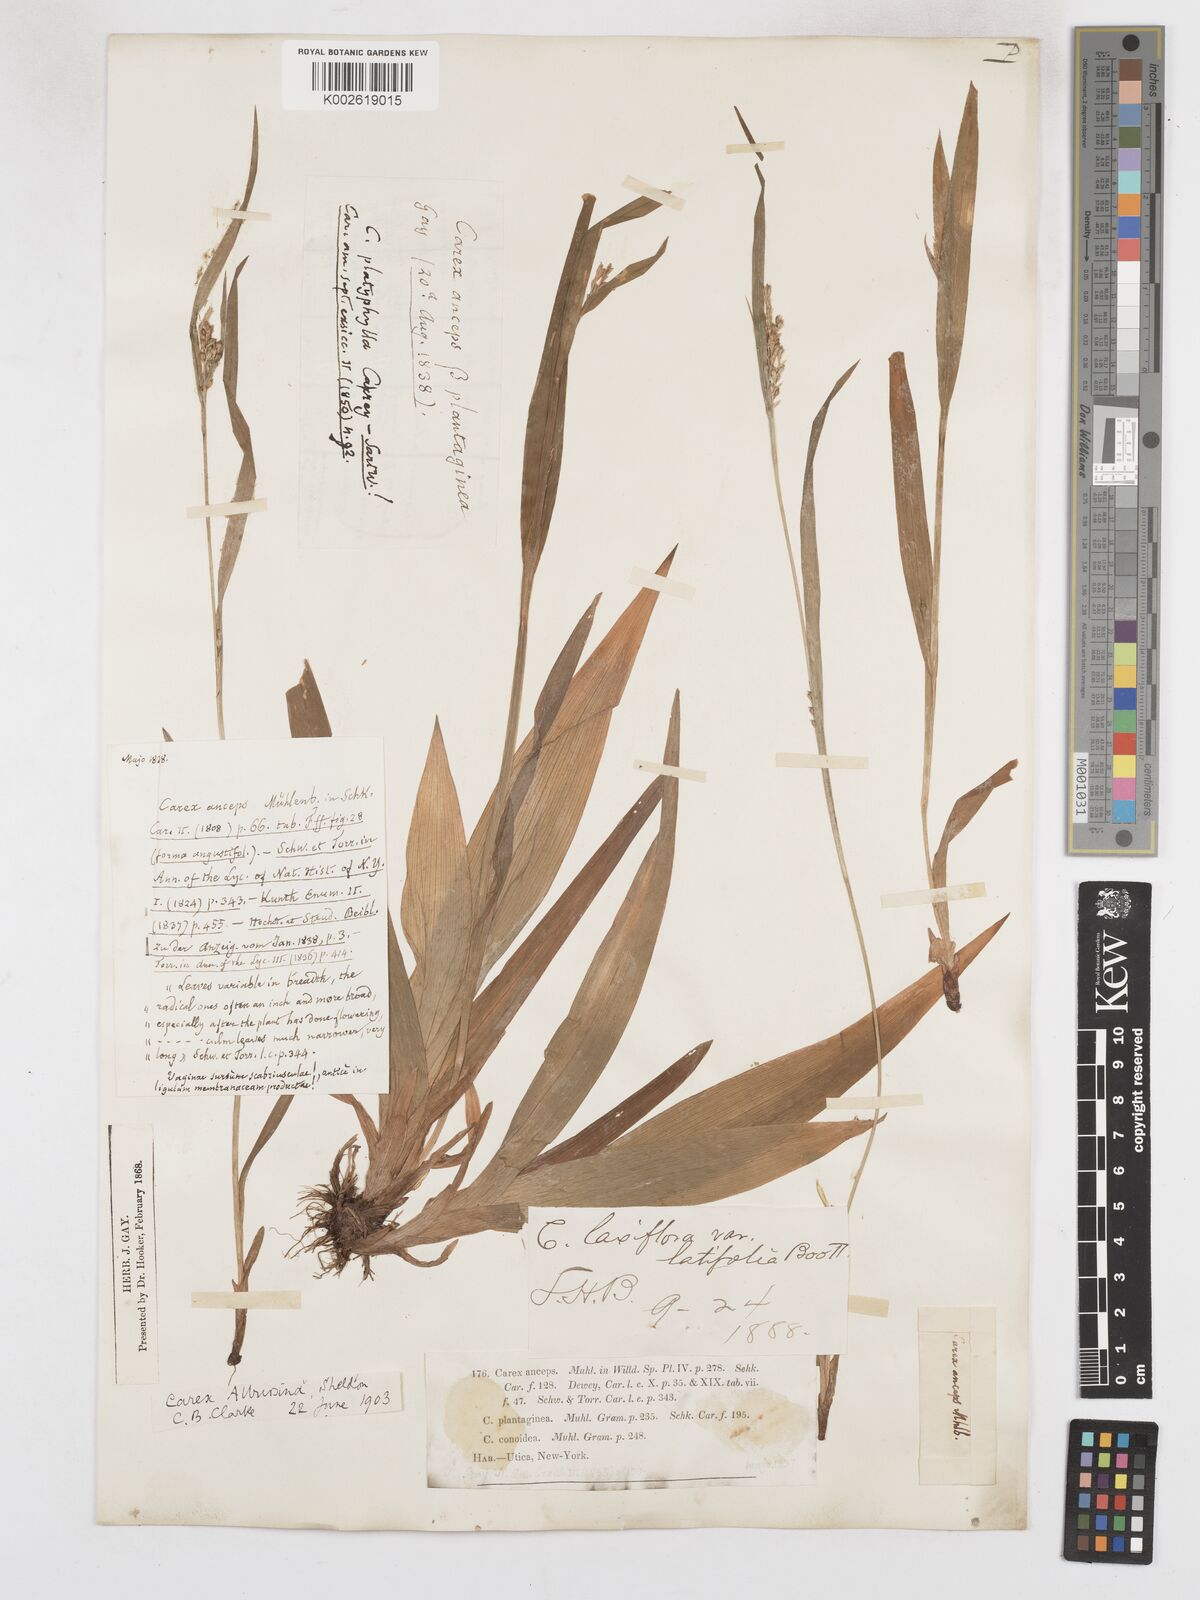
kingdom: Plantae
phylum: Tracheophyta
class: Liliopsida
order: Poales
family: Cyperaceae
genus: Carex
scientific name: Carex albursina
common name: Blunt-scale wood sedge
